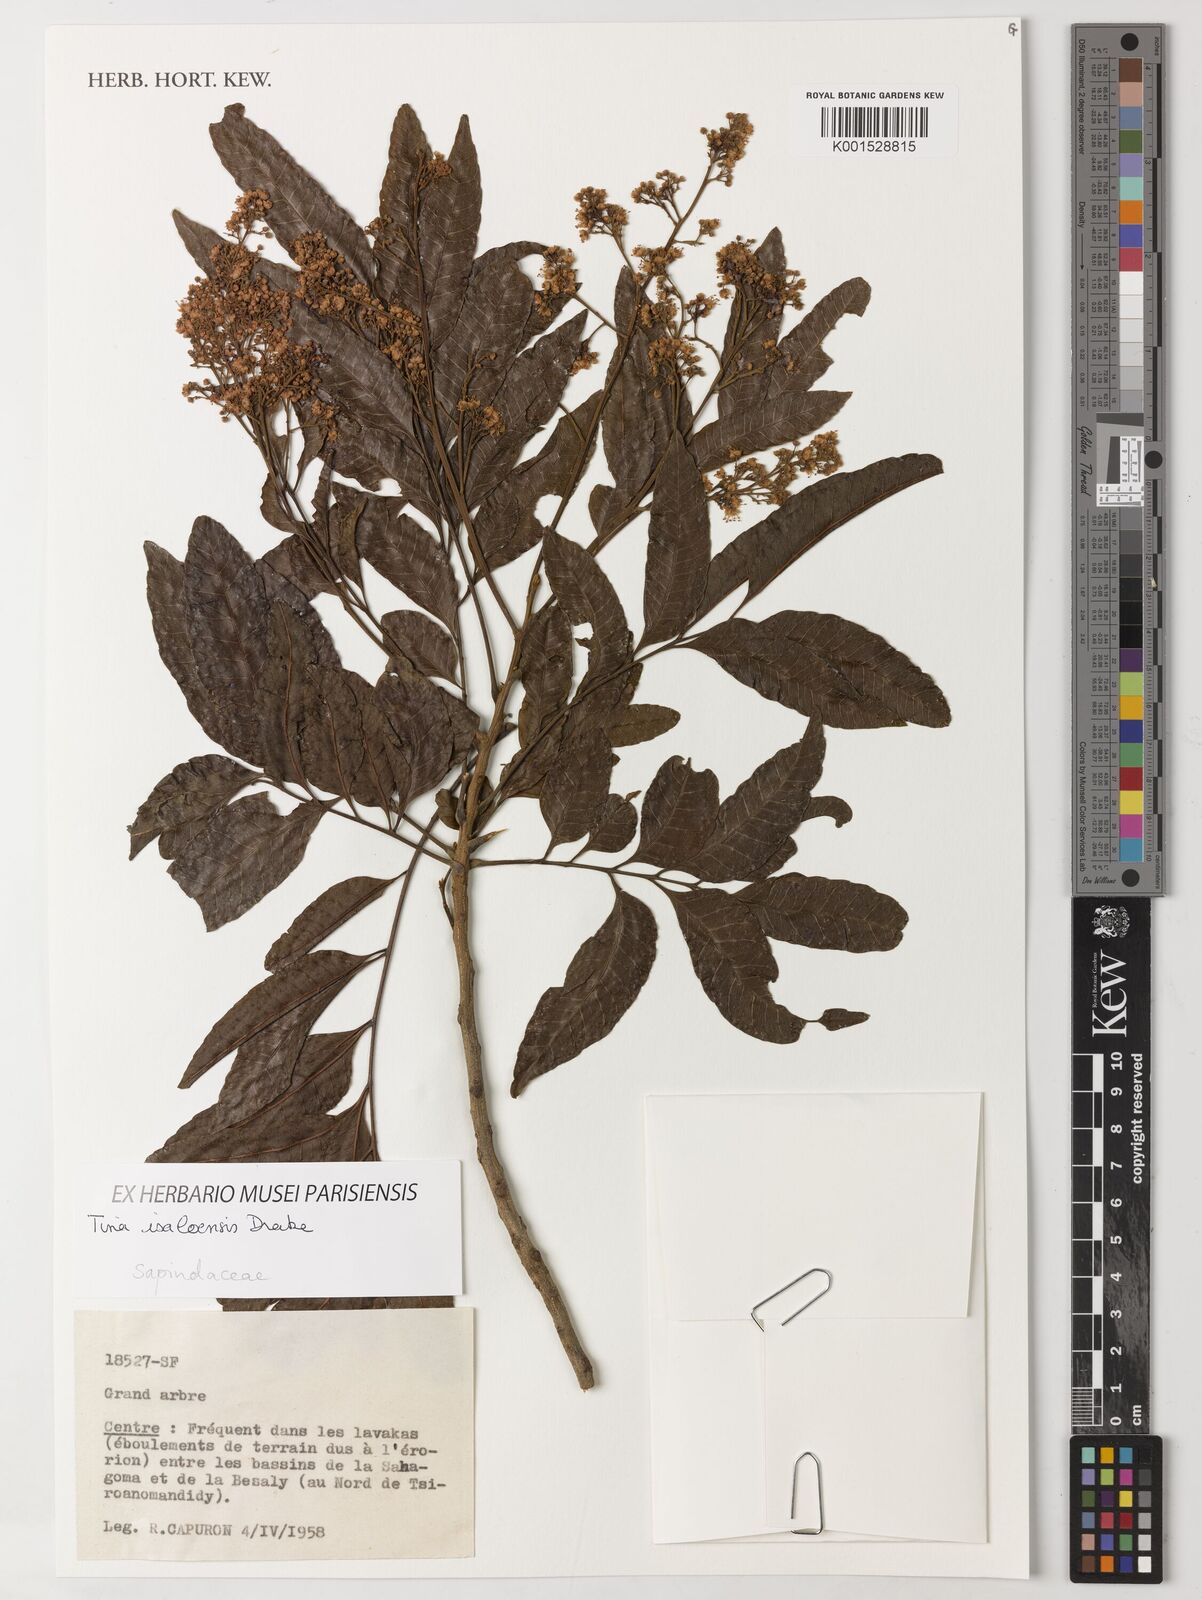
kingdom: Plantae
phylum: Tracheophyta
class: Magnoliopsida
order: Sapindales
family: Sapindaceae
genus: Tina
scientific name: Tina isaloensis
